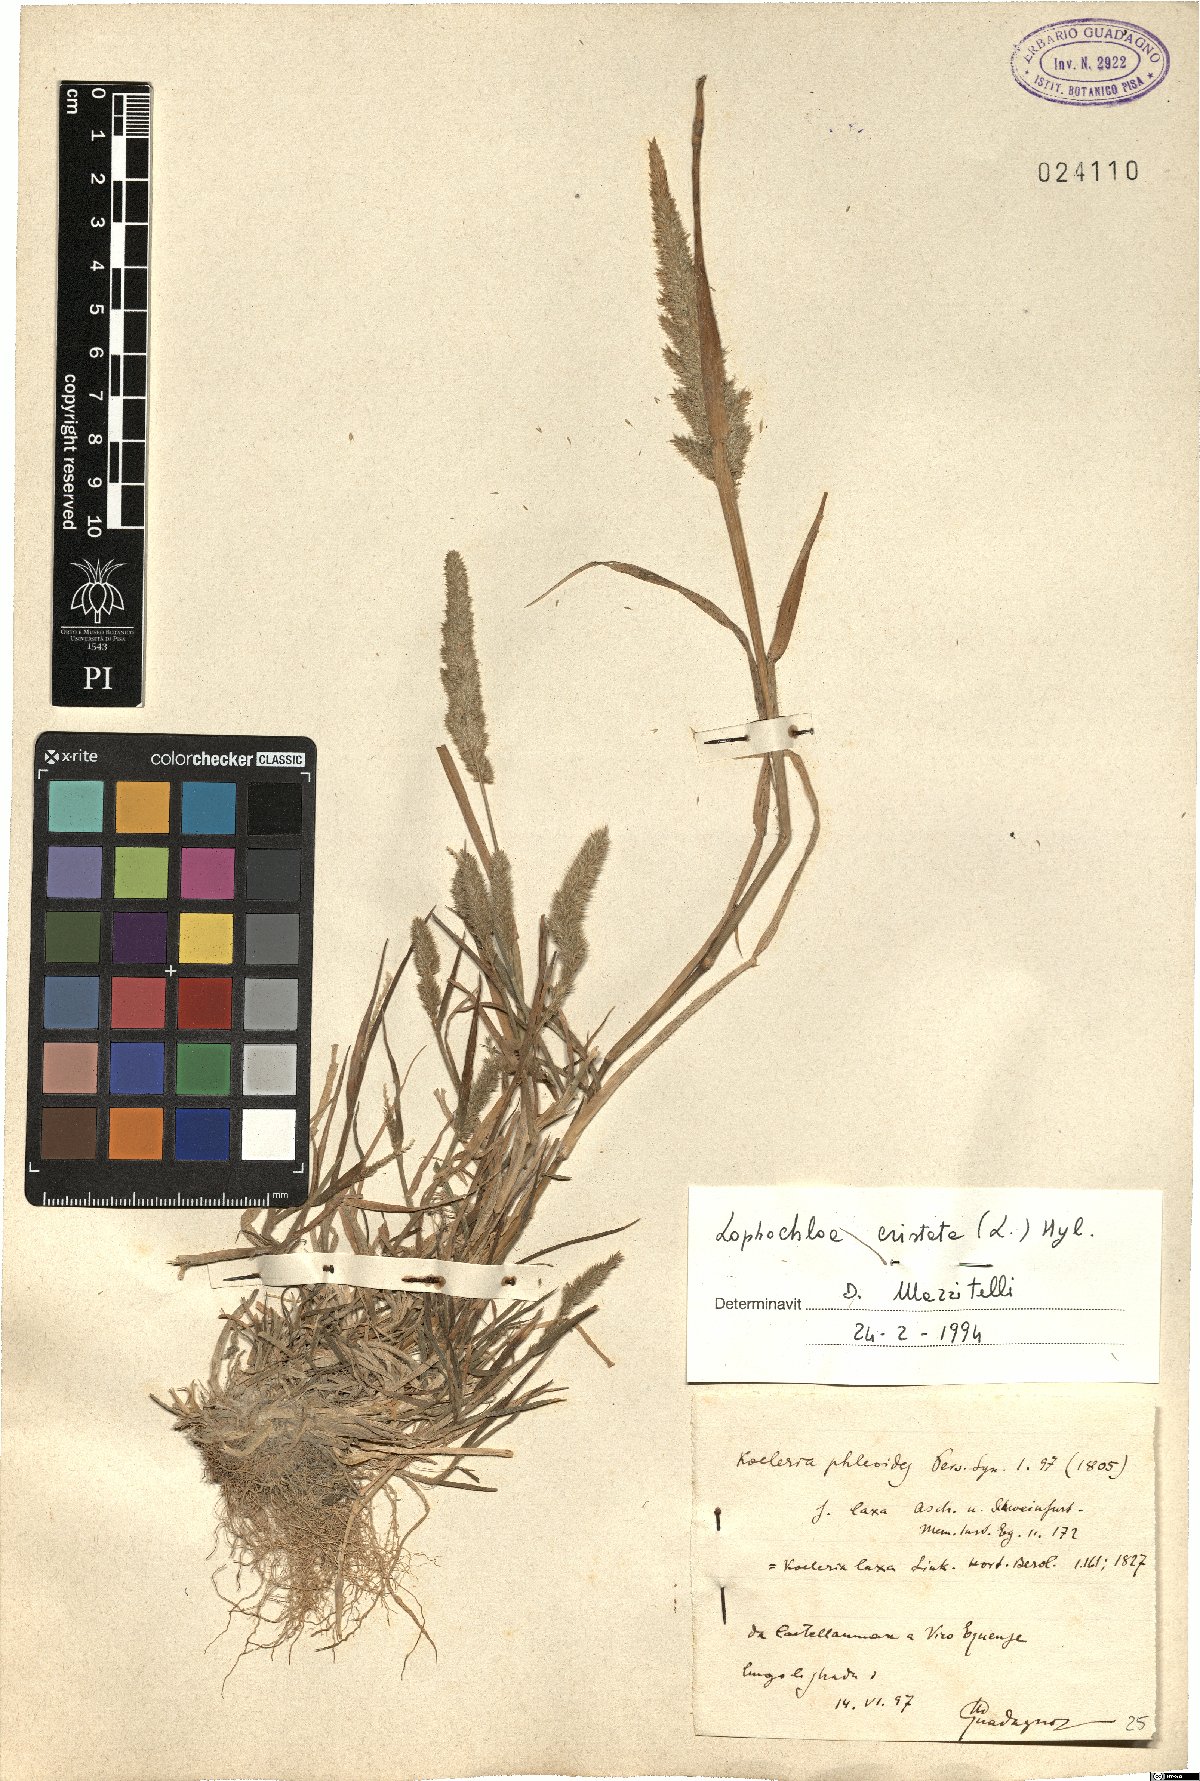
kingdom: Plantae
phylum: Tracheophyta
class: Liliopsida
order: Poales
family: Poaceae
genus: Rostraria
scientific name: Rostraria cristata
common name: Mediterranean hair-grass
